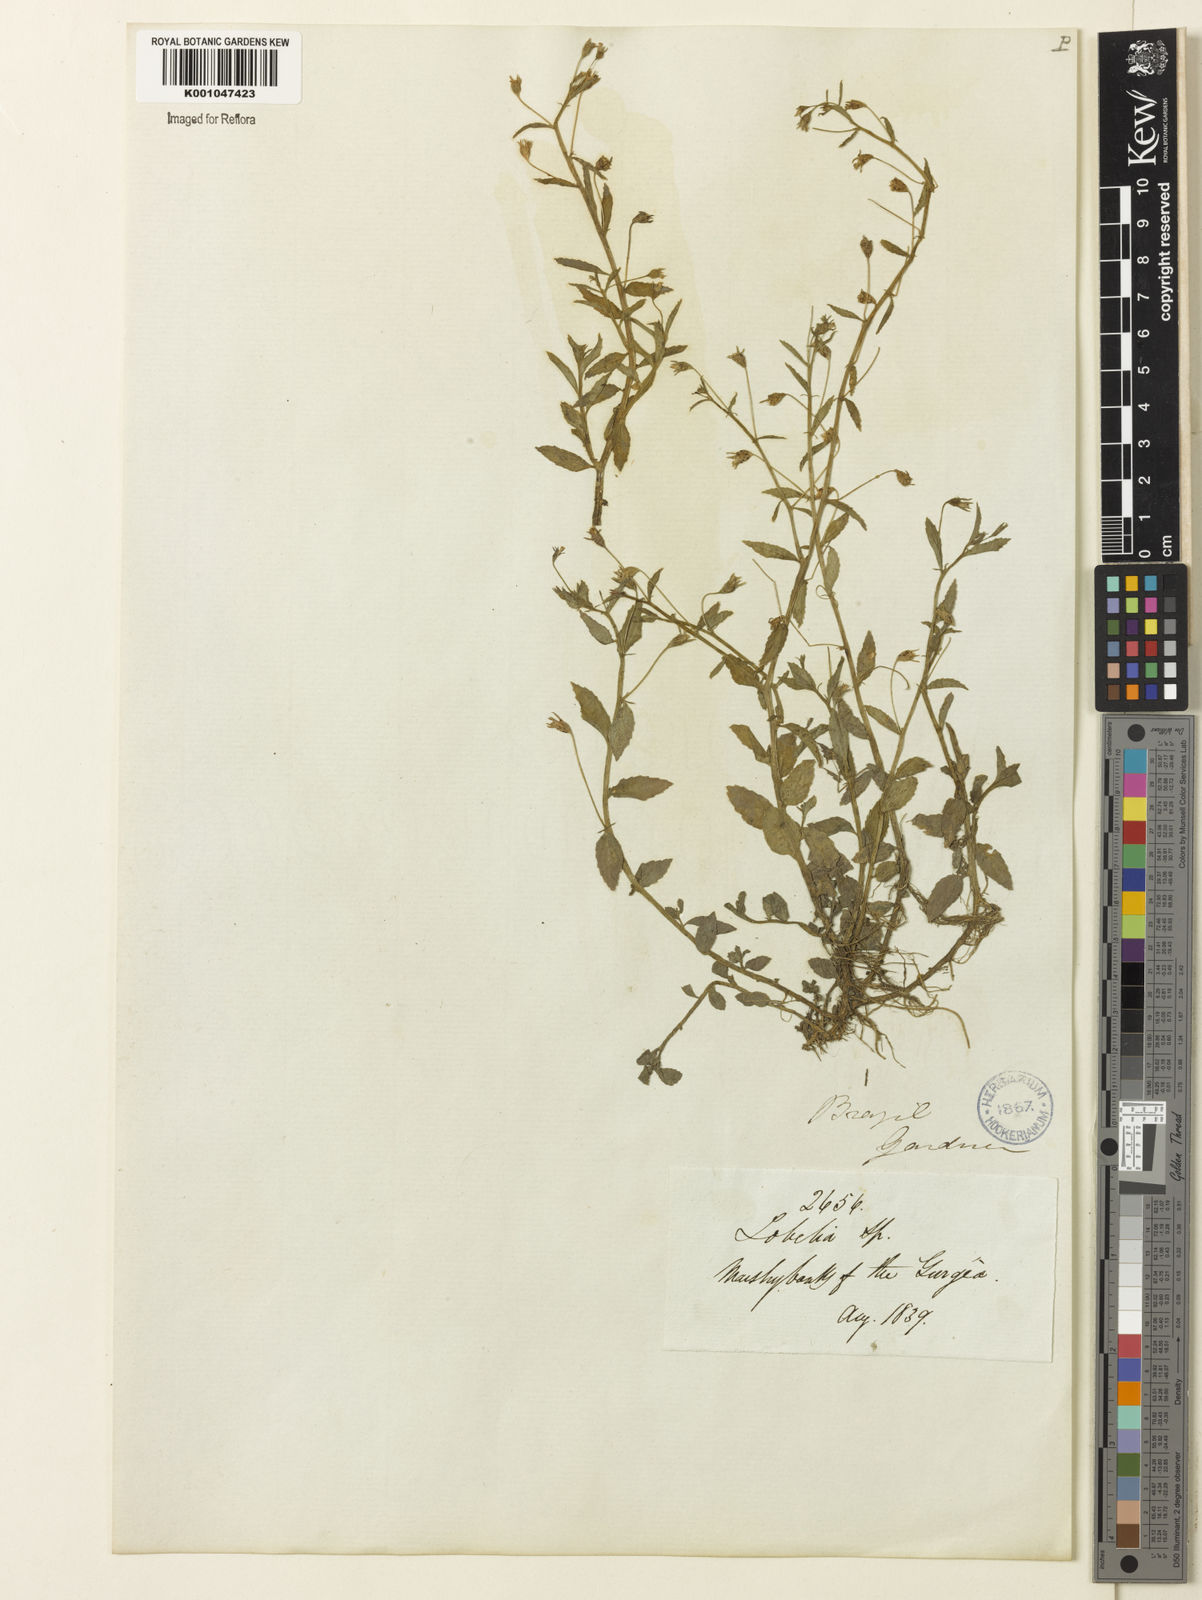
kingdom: Plantae
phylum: Tracheophyta
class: Magnoliopsida
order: Asterales
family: Campanulaceae
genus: Lobelia
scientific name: Lobelia aquatica
